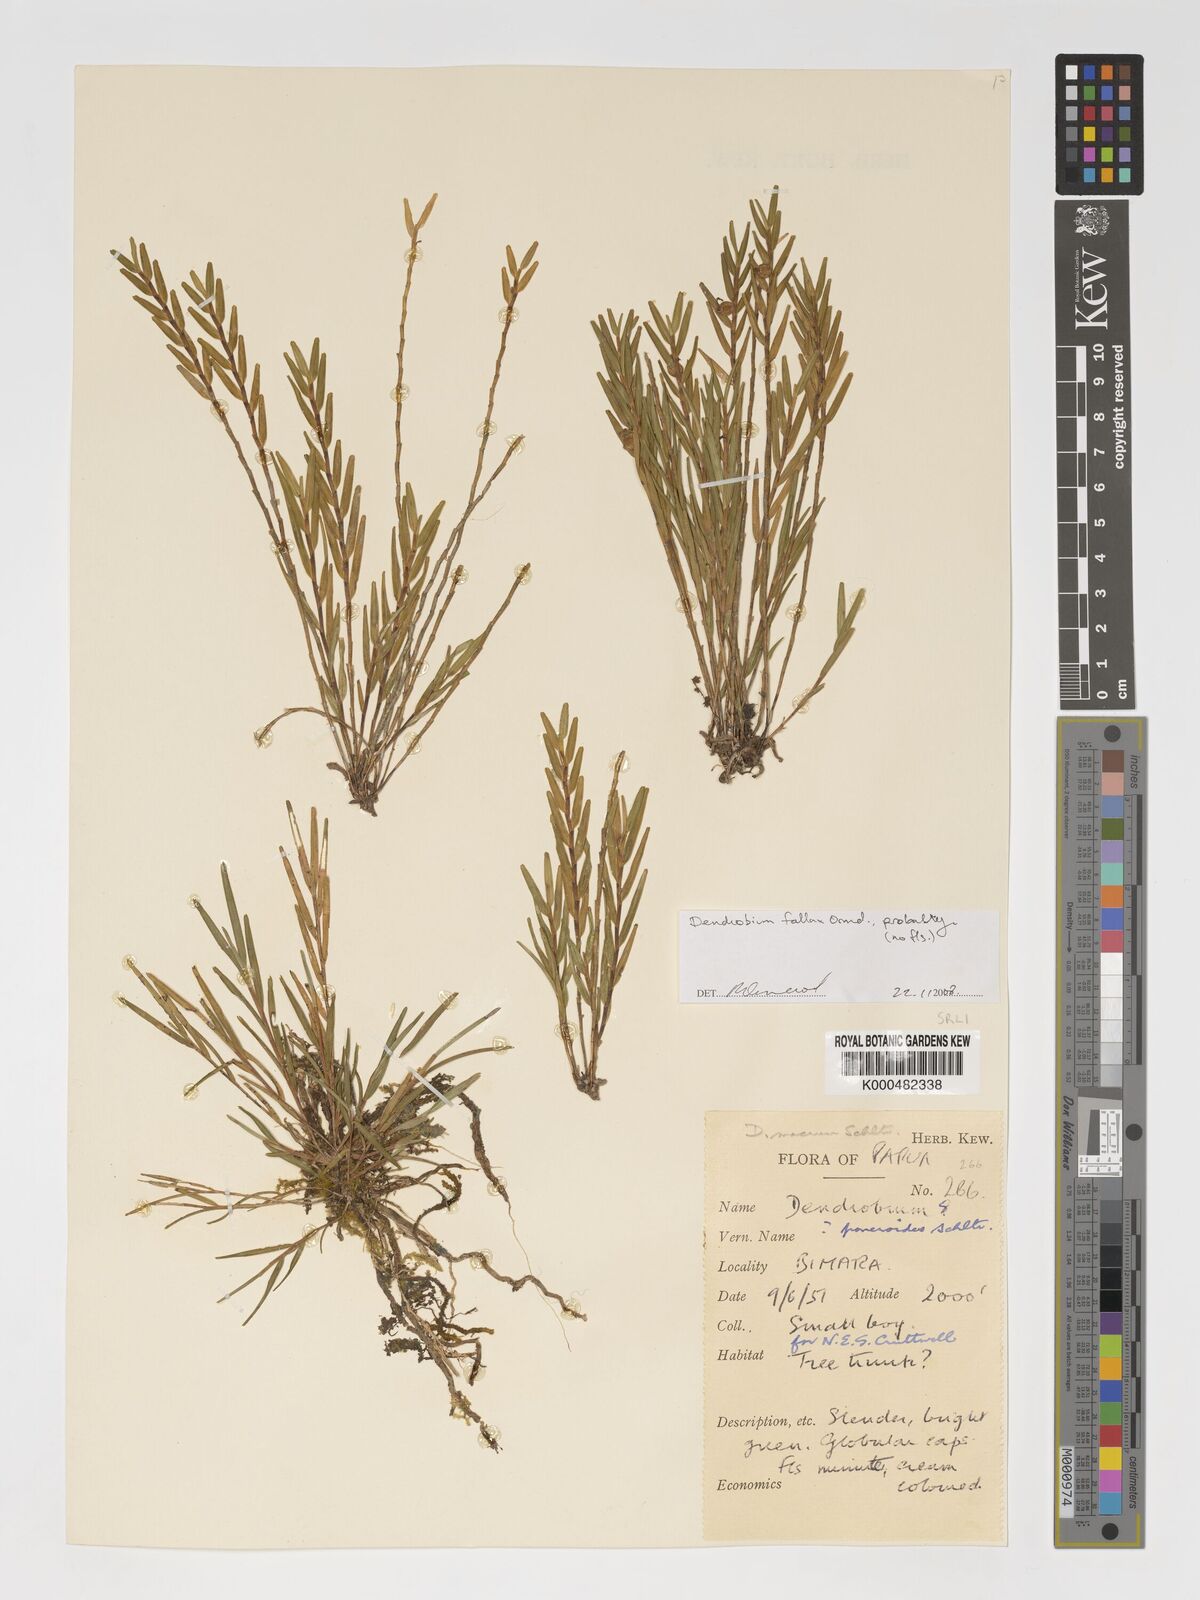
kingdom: Plantae
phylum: Tracheophyta
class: Liliopsida
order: Asparagales
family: Orchidaceae
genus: Dendrobium
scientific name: Dendrobium poneroides
